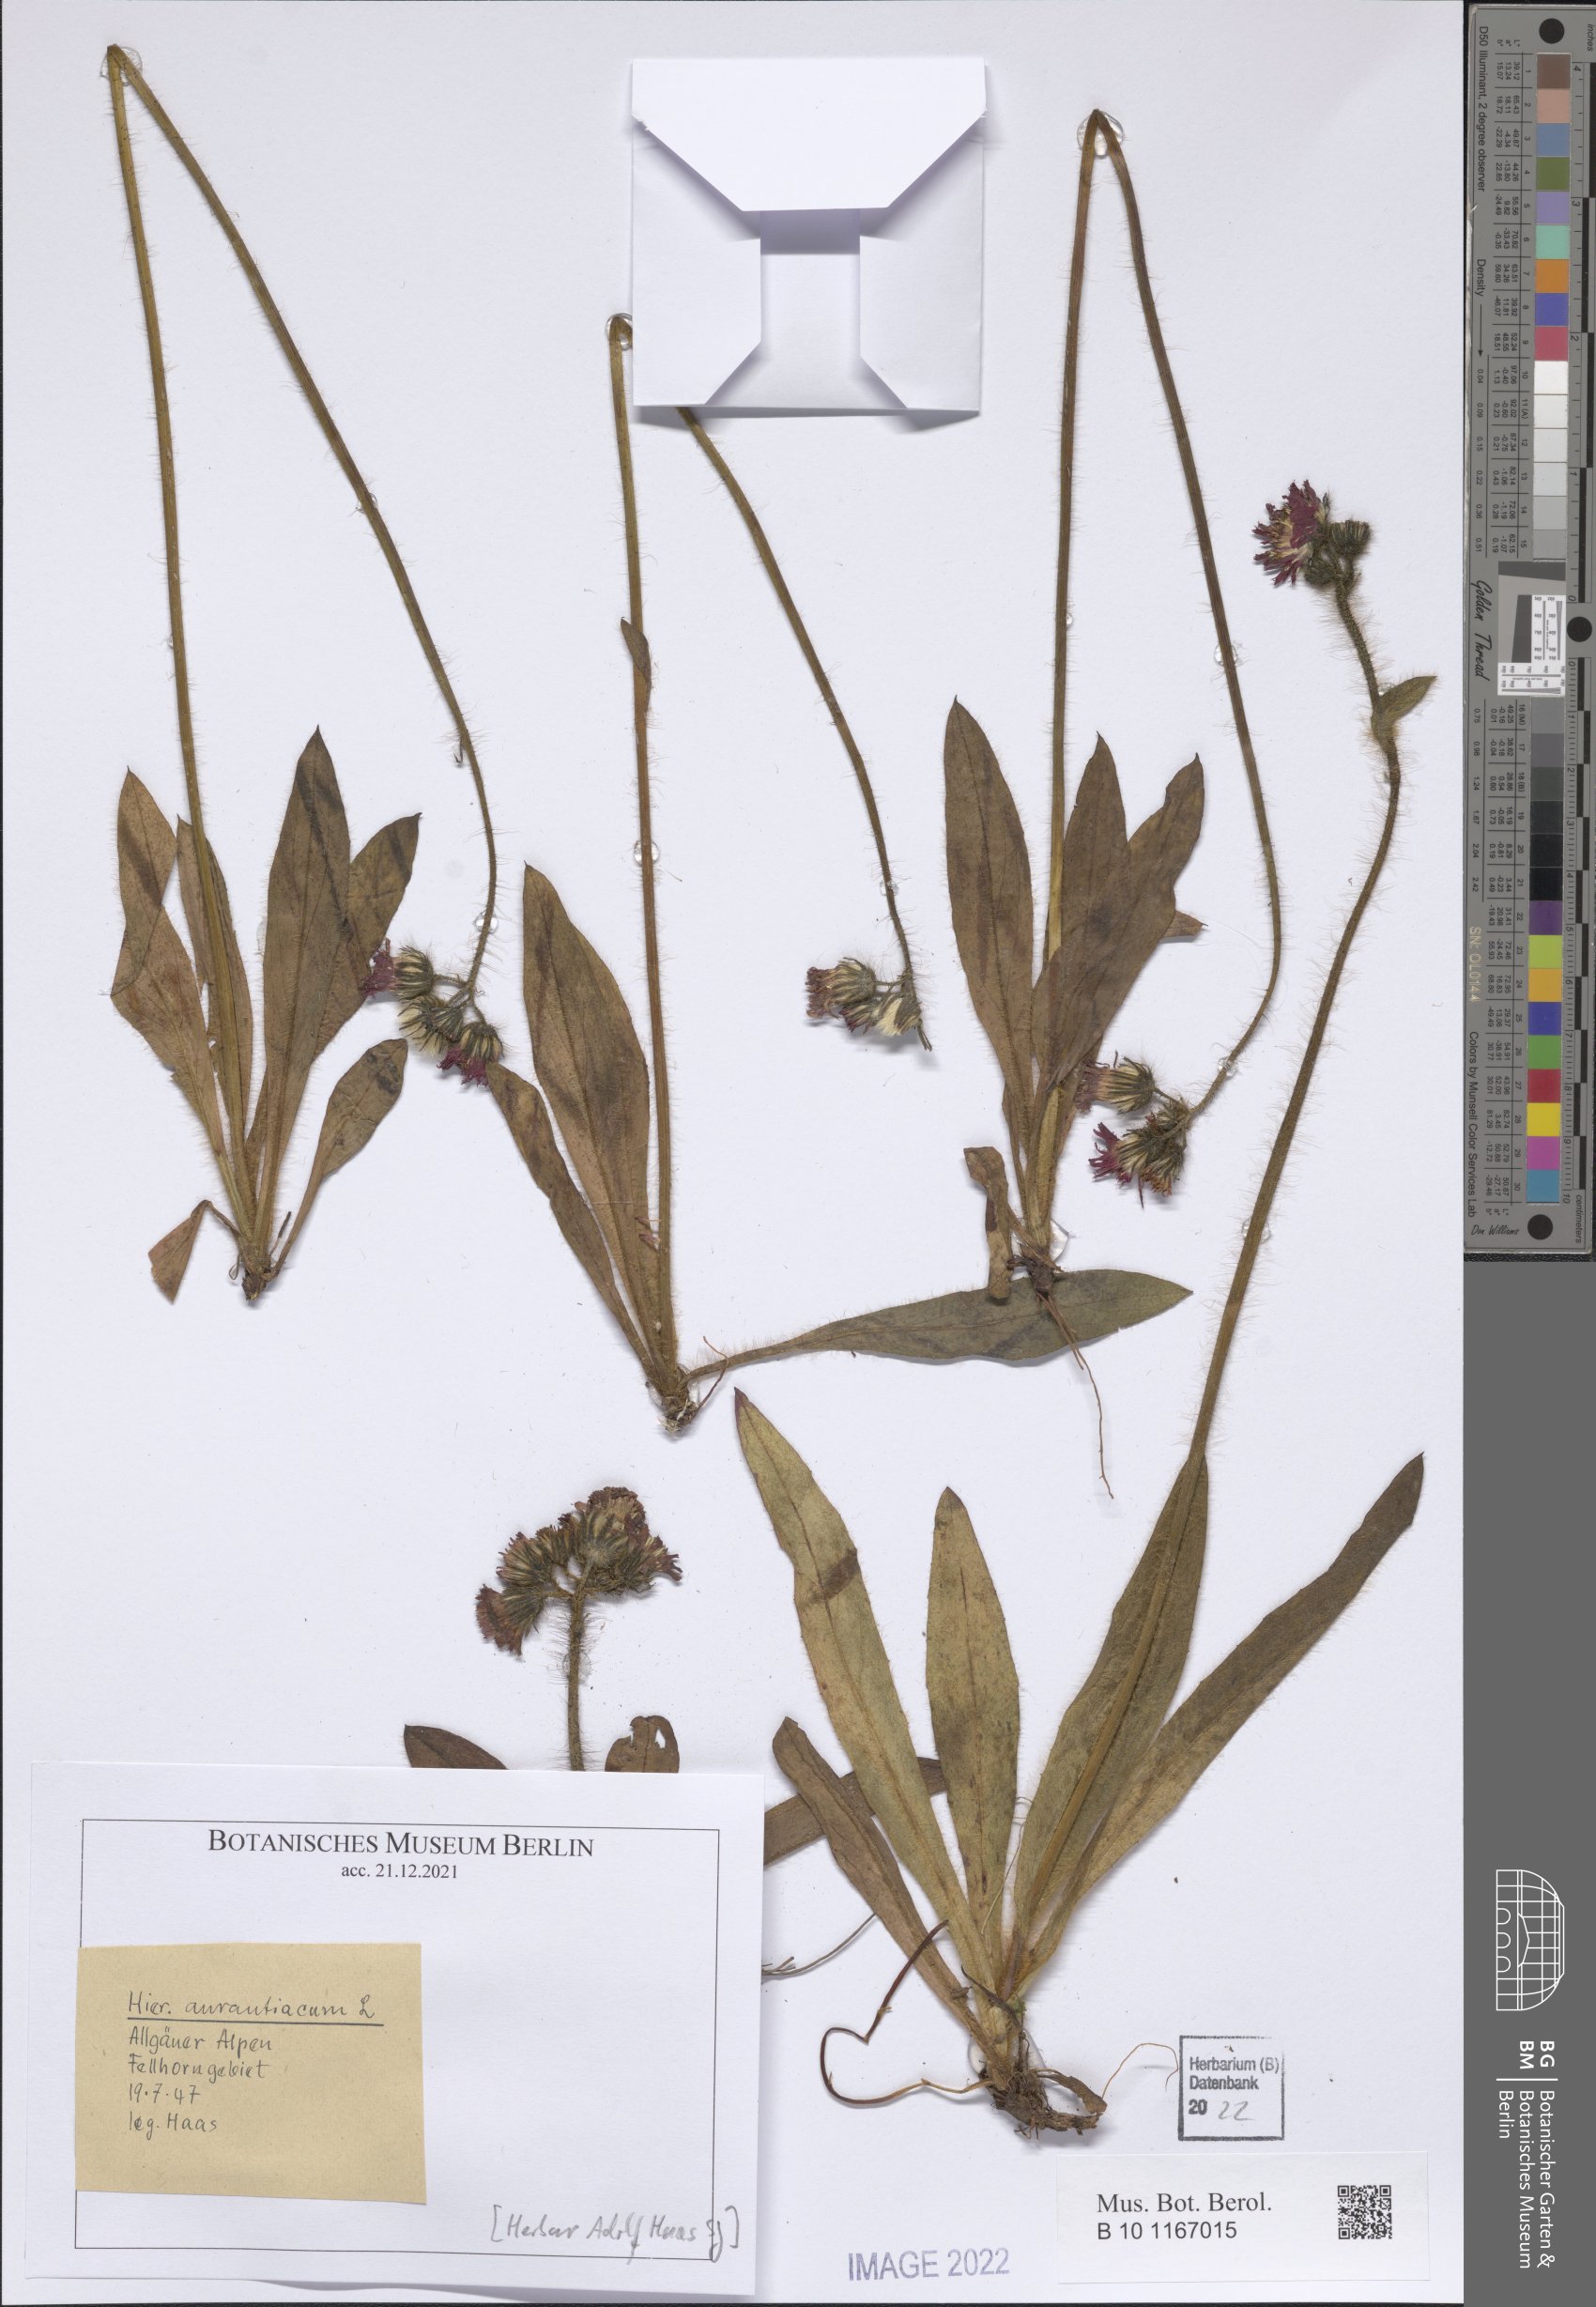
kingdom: Plantae
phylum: Tracheophyta
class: Magnoliopsida
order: Asterales
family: Asteraceae
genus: Pilosella
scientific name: Pilosella aurantiaca
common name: Fox-and-cubs
